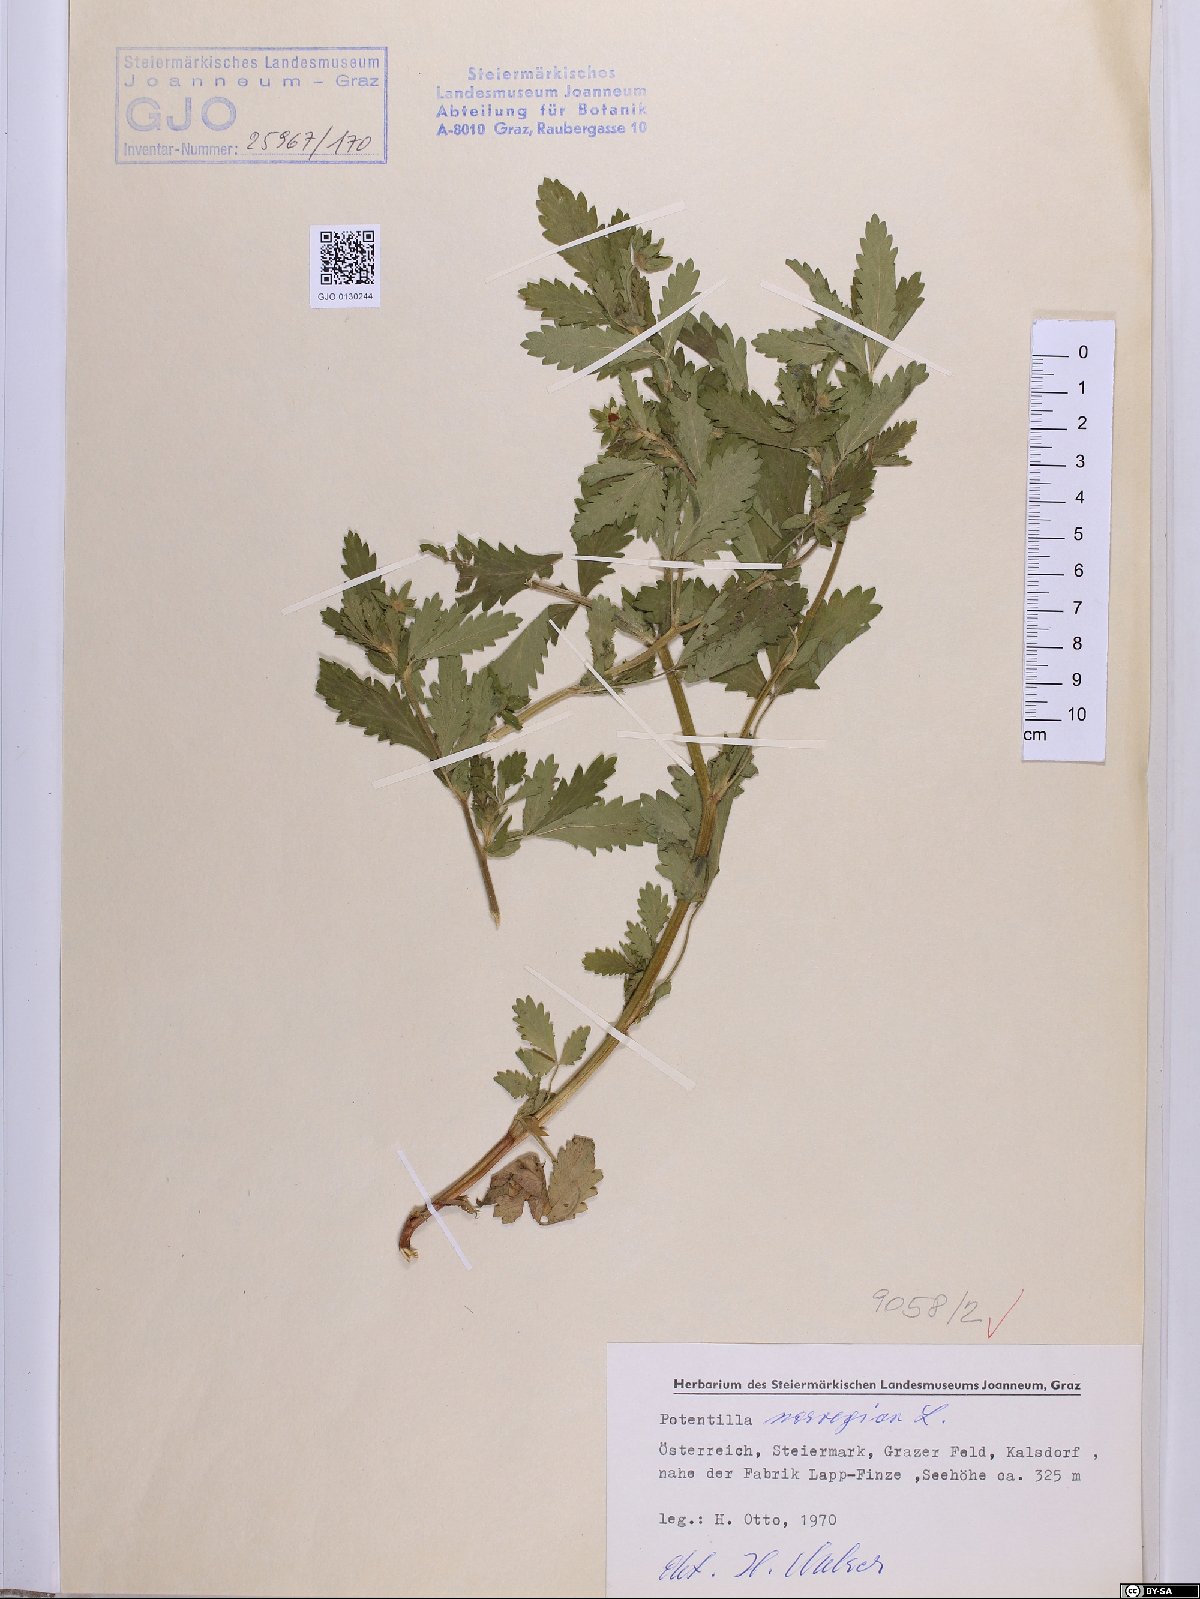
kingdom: Plantae
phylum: Tracheophyta
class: Magnoliopsida
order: Rosales
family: Rosaceae
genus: Potentilla
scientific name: Potentilla norvegica
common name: Ternate-leaved cinquefoil
